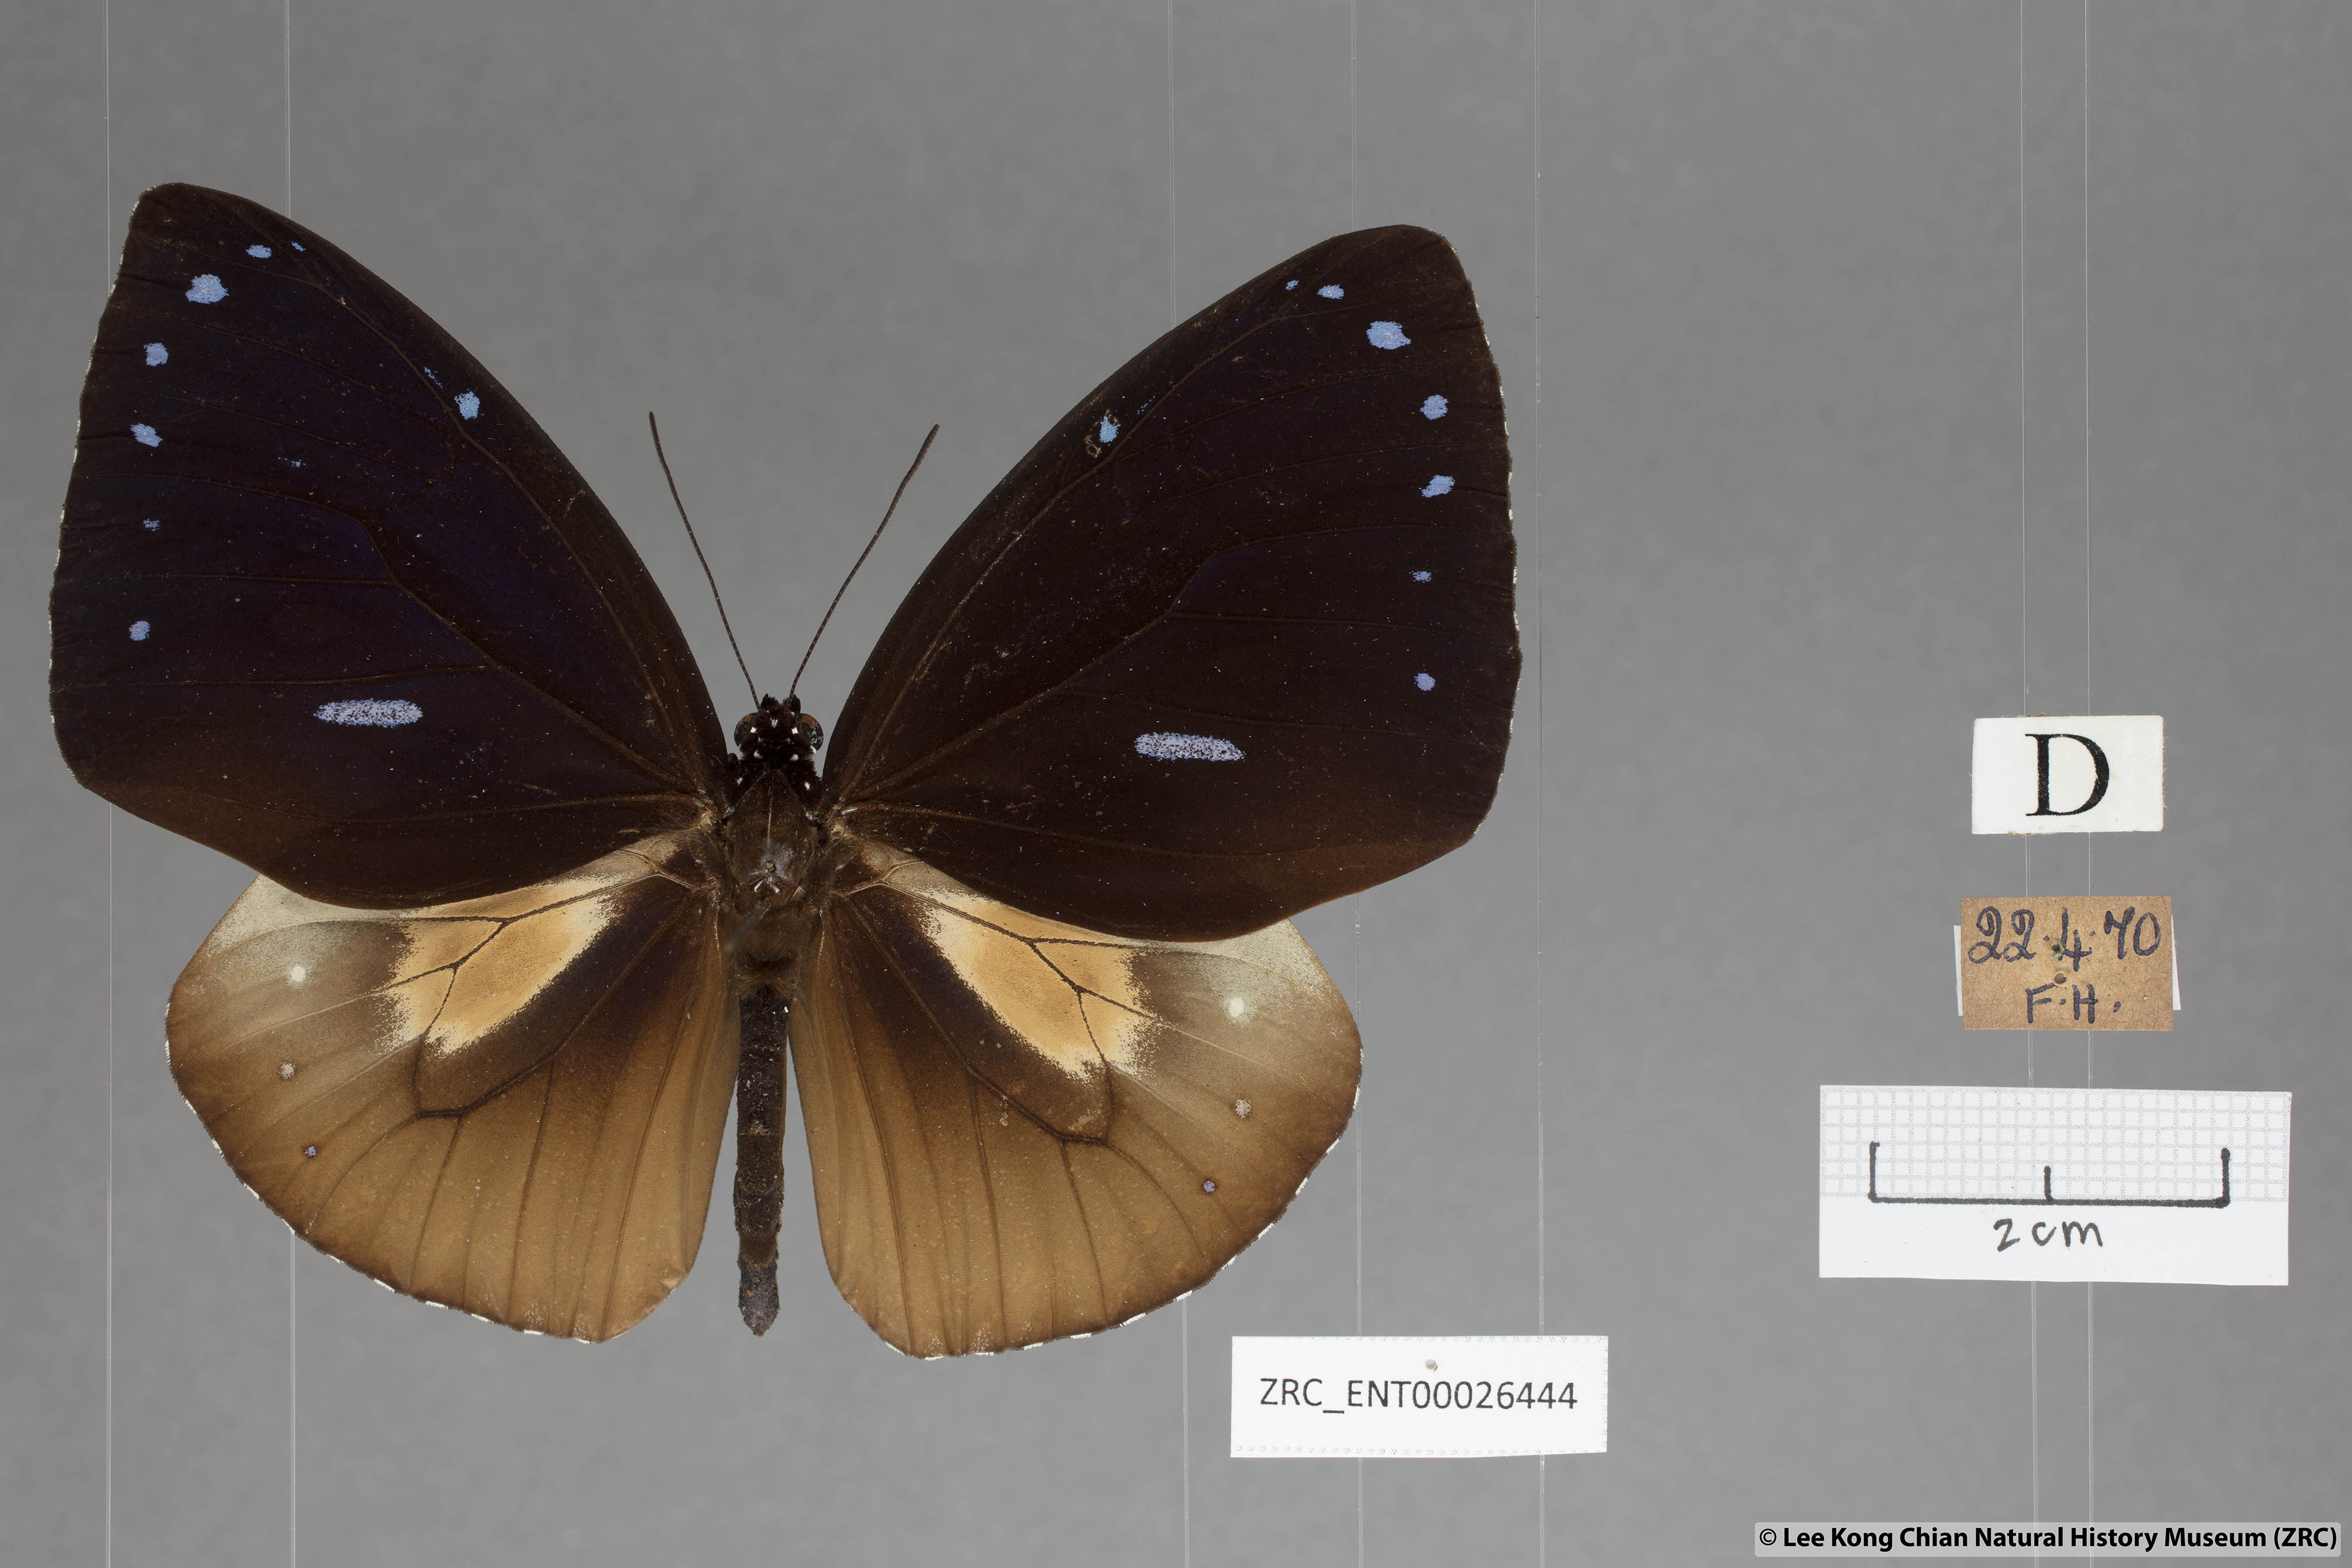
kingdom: Animalia
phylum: Arthropoda
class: Insecta
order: Lepidoptera
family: Nymphalidae
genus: Euploea
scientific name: Euploea eunice
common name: Blue-banded king crow butterfly
